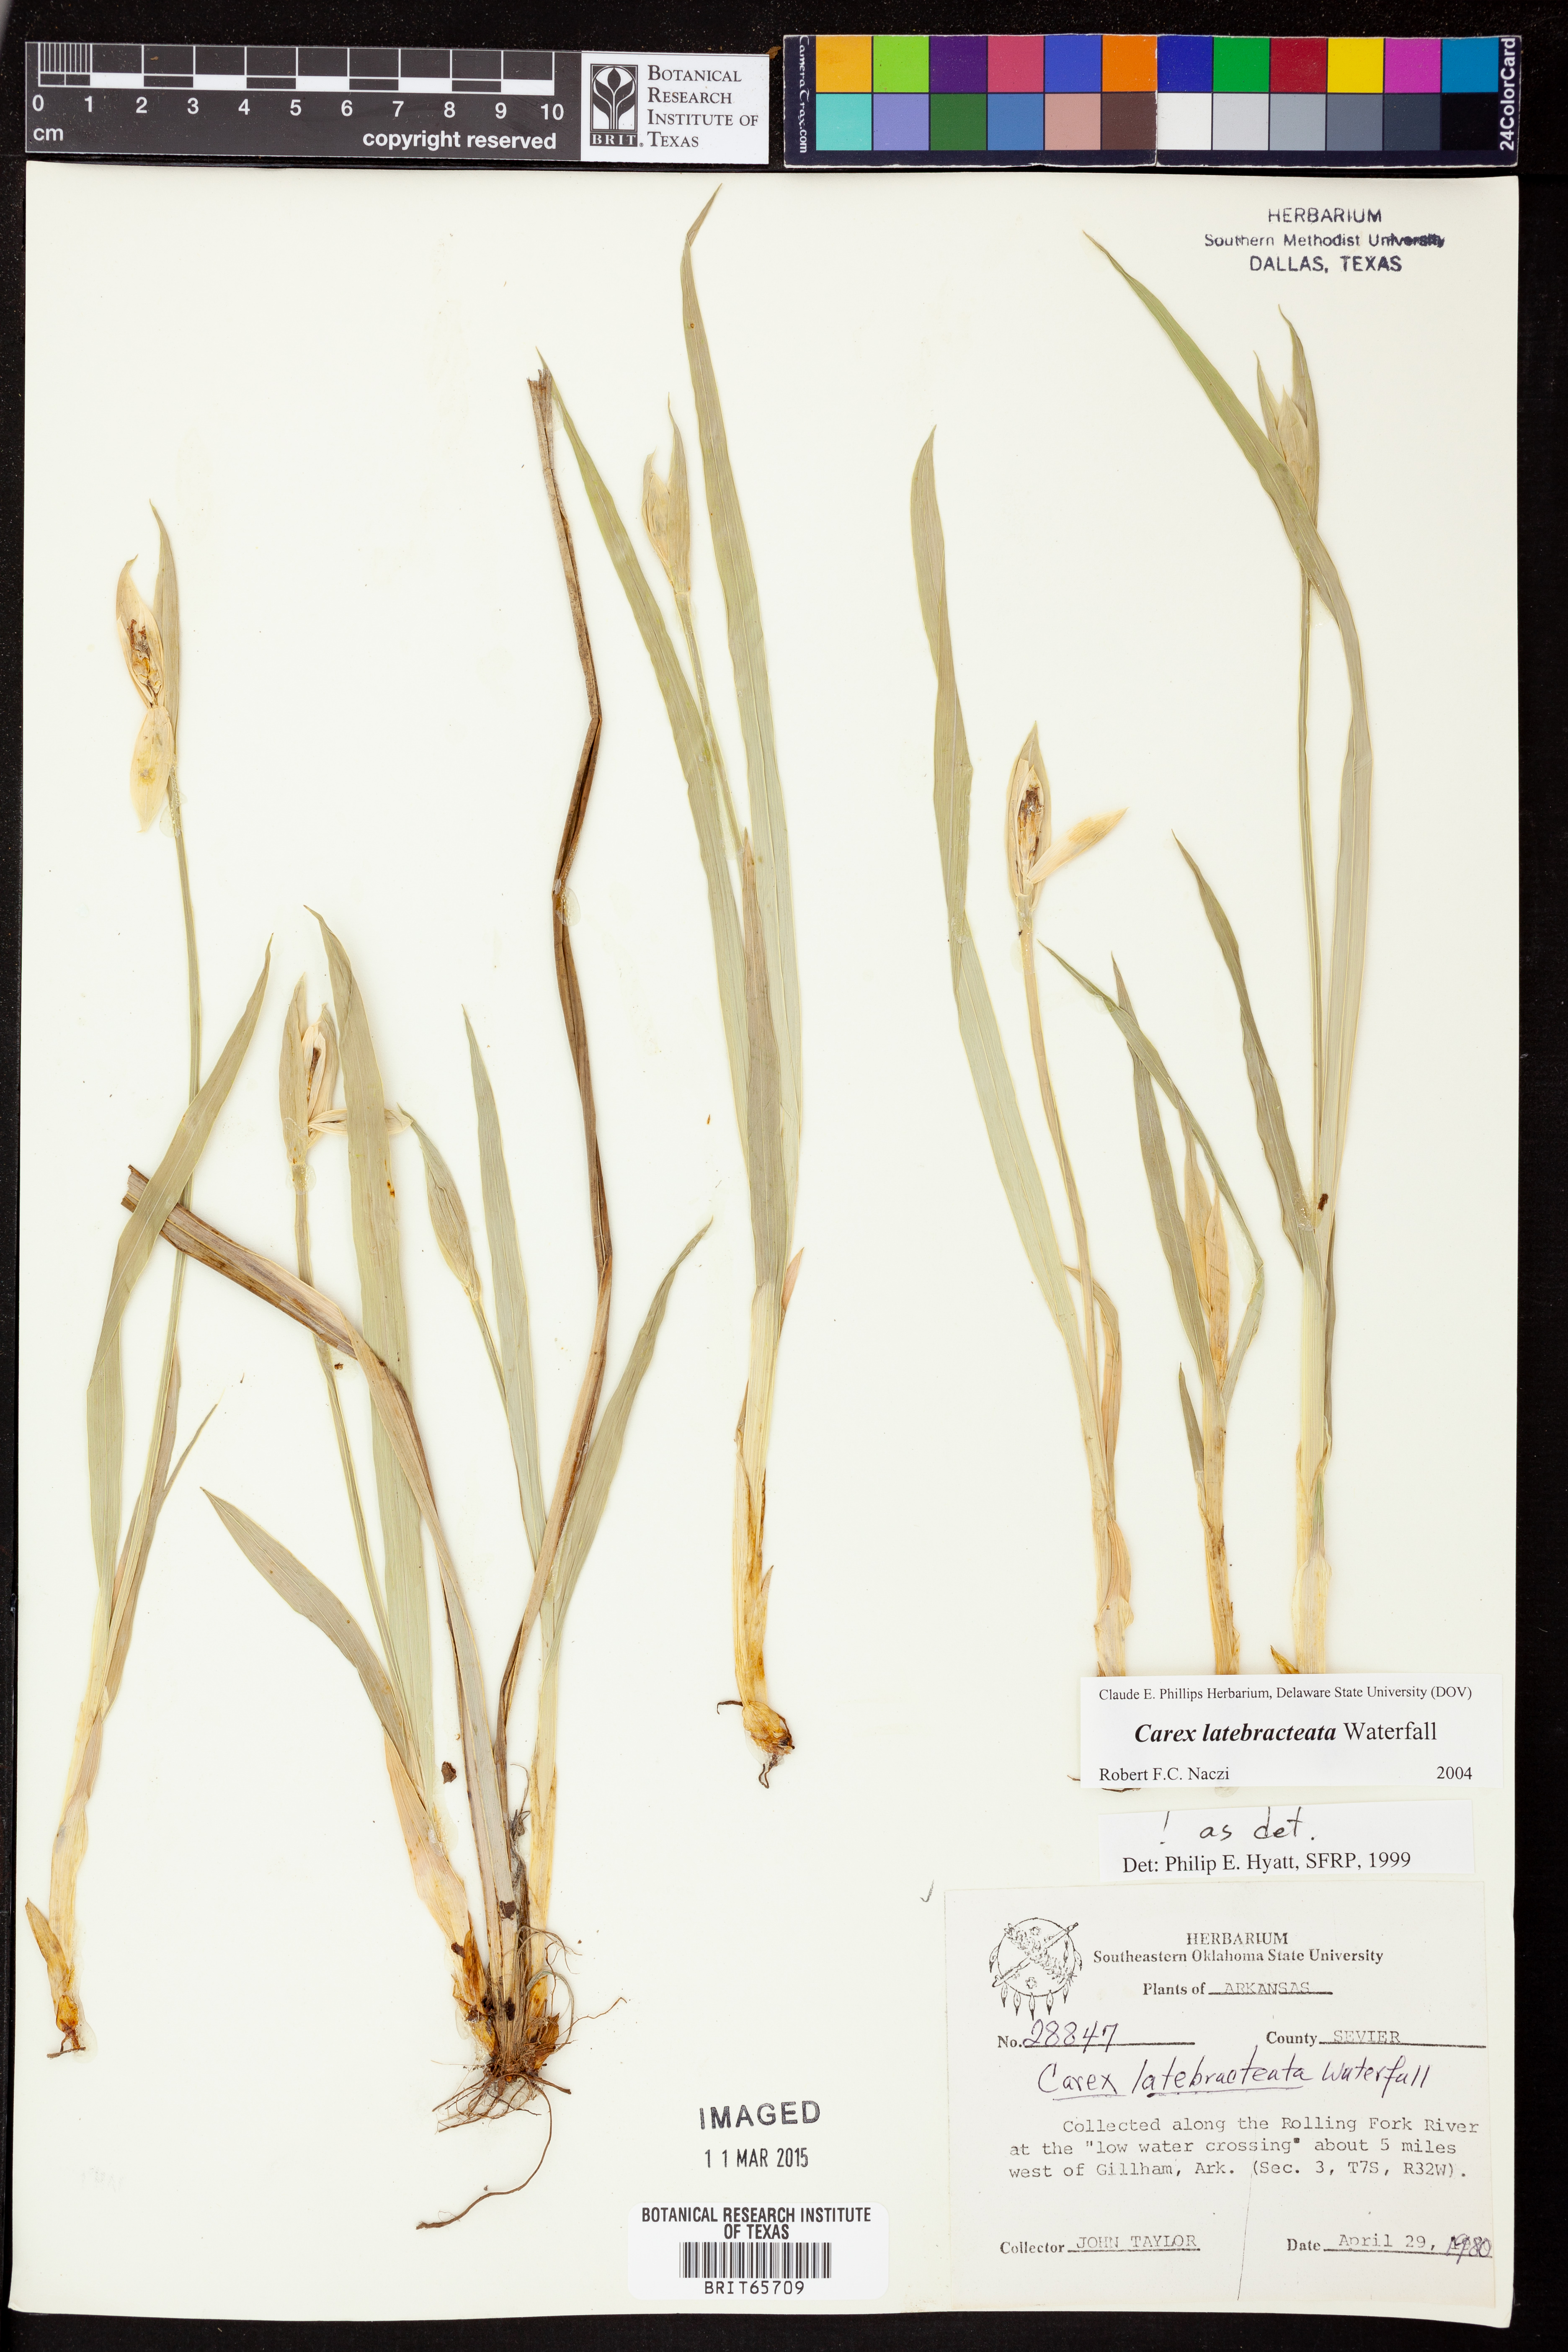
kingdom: Plantae
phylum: Tracheophyta
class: Liliopsida
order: Poales
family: Cyperaceae
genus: Carex
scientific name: Carex latebracteata
